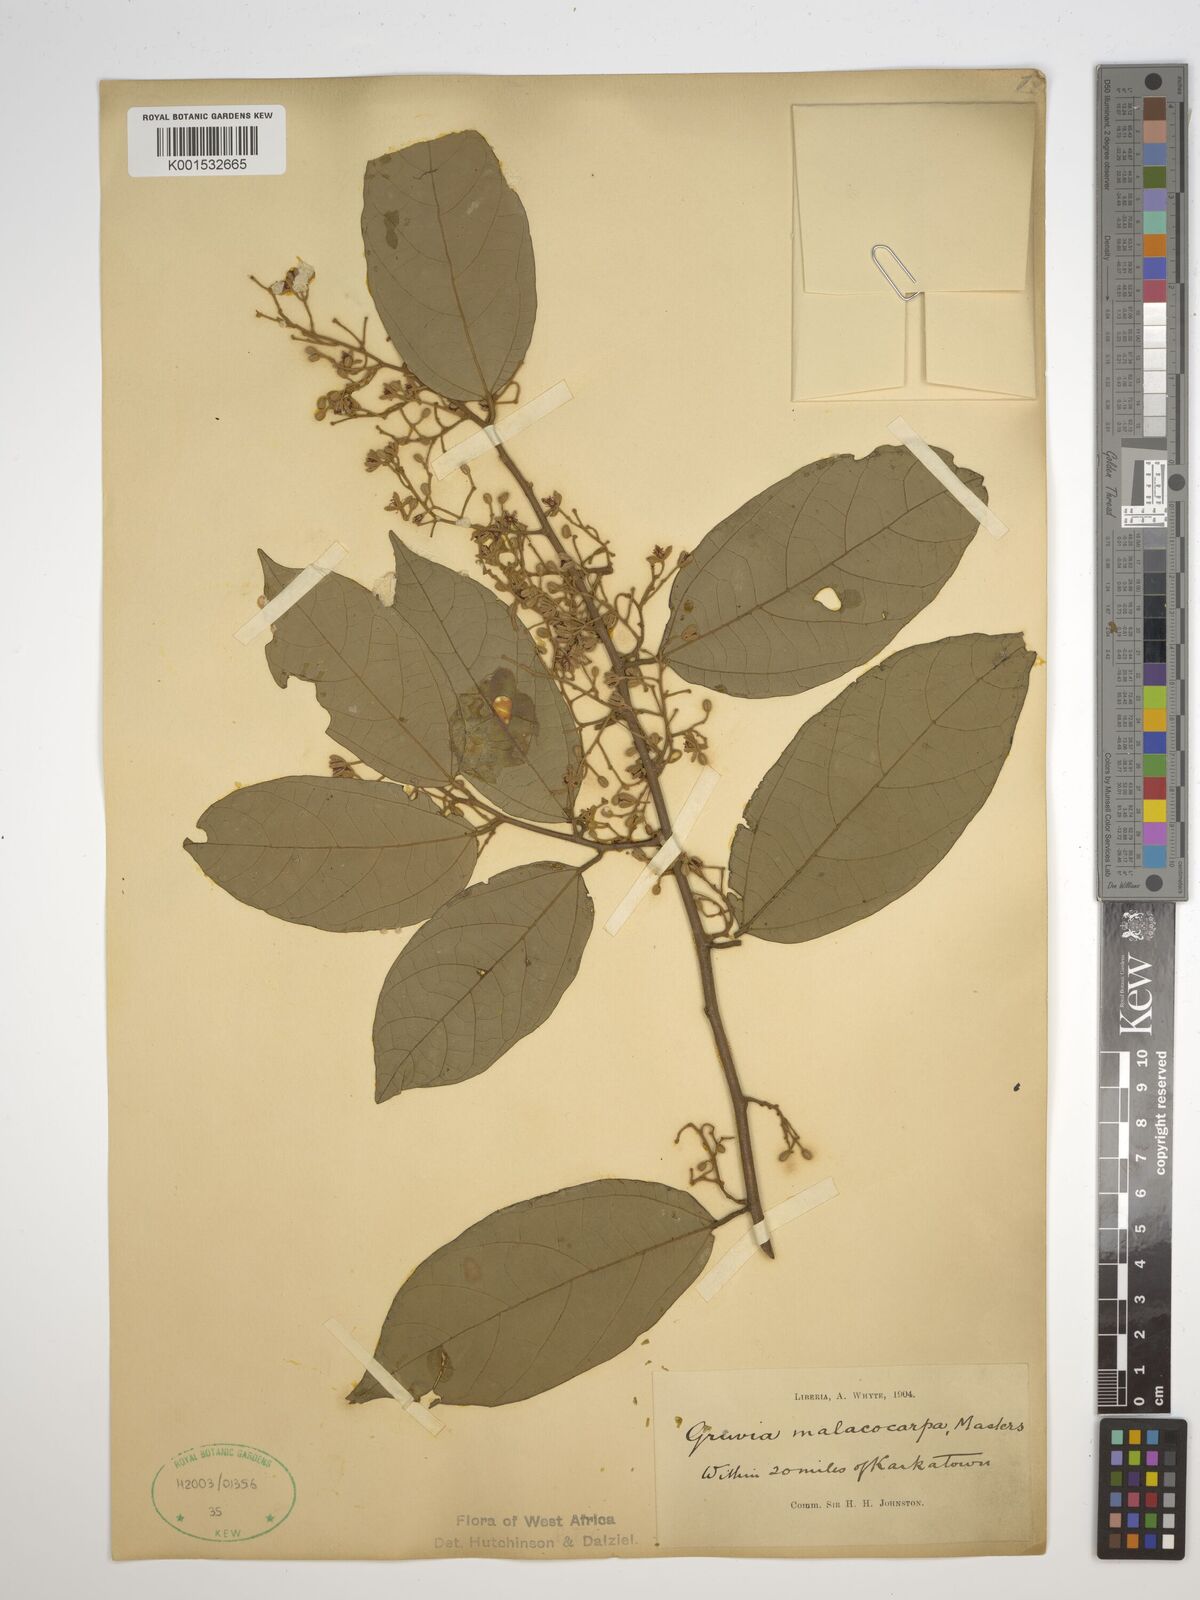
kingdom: Plantae
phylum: Tracheophyta
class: Magnoliopsida
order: Malvales
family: Malvaceae
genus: Microcos
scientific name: Microcos malacocarpa
